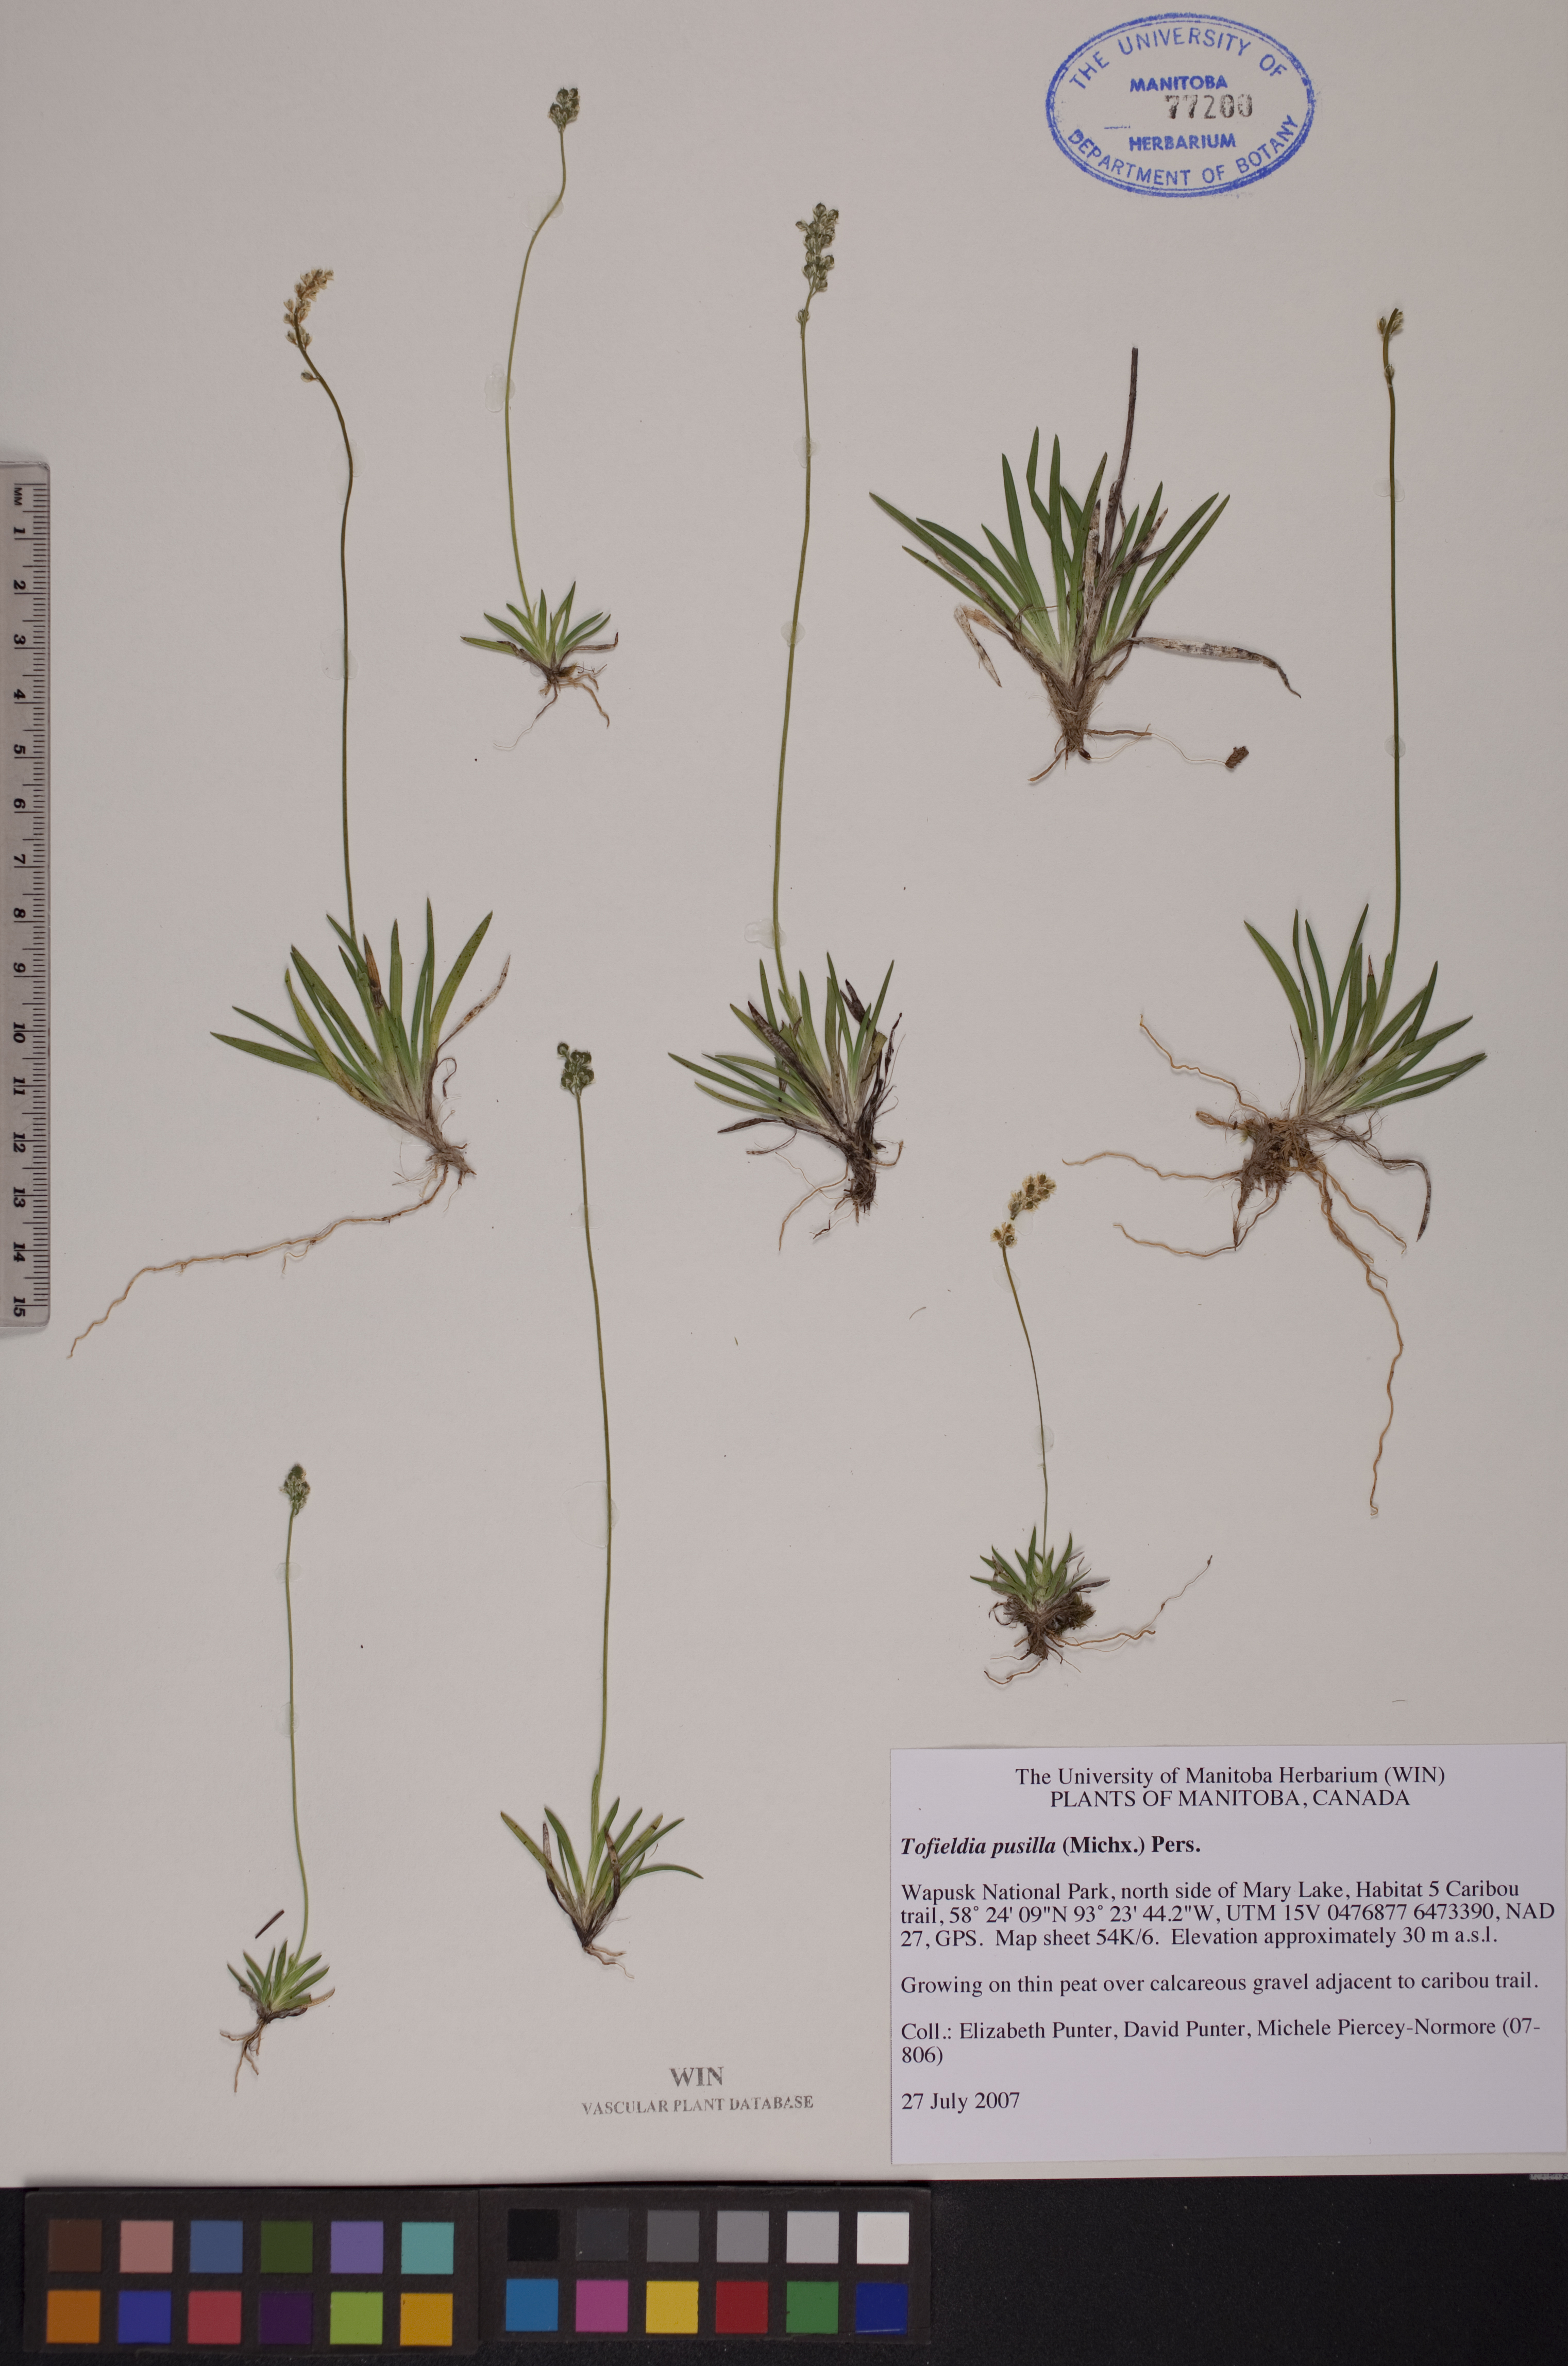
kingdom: Plantae
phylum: Tracheophyta
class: Liliopsida
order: Alismatales
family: Tofieldiaceae
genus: Tofieldia
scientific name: Tofieldia pusilla
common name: Scottish false asphodel
